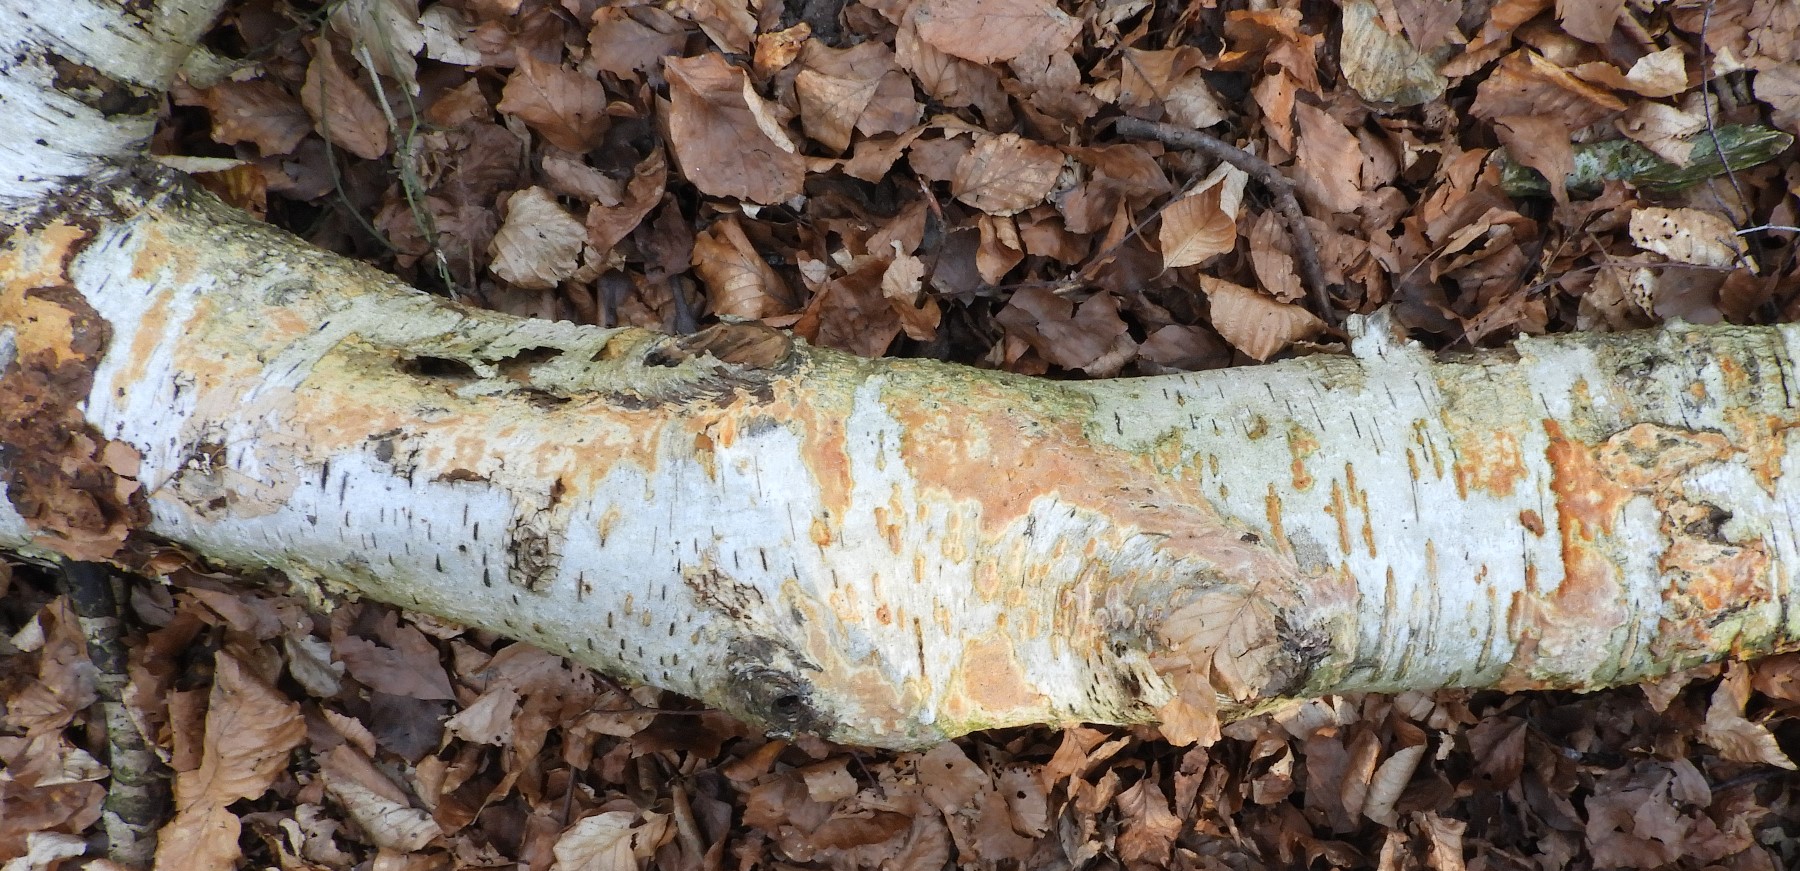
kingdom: Fungi
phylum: Basidiomycota
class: Agaricomycetes
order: Hymenochaetales
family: Schizoporaceae
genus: Xylodon
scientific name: Xylodon flaviporus
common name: gulporet tandsvamp
